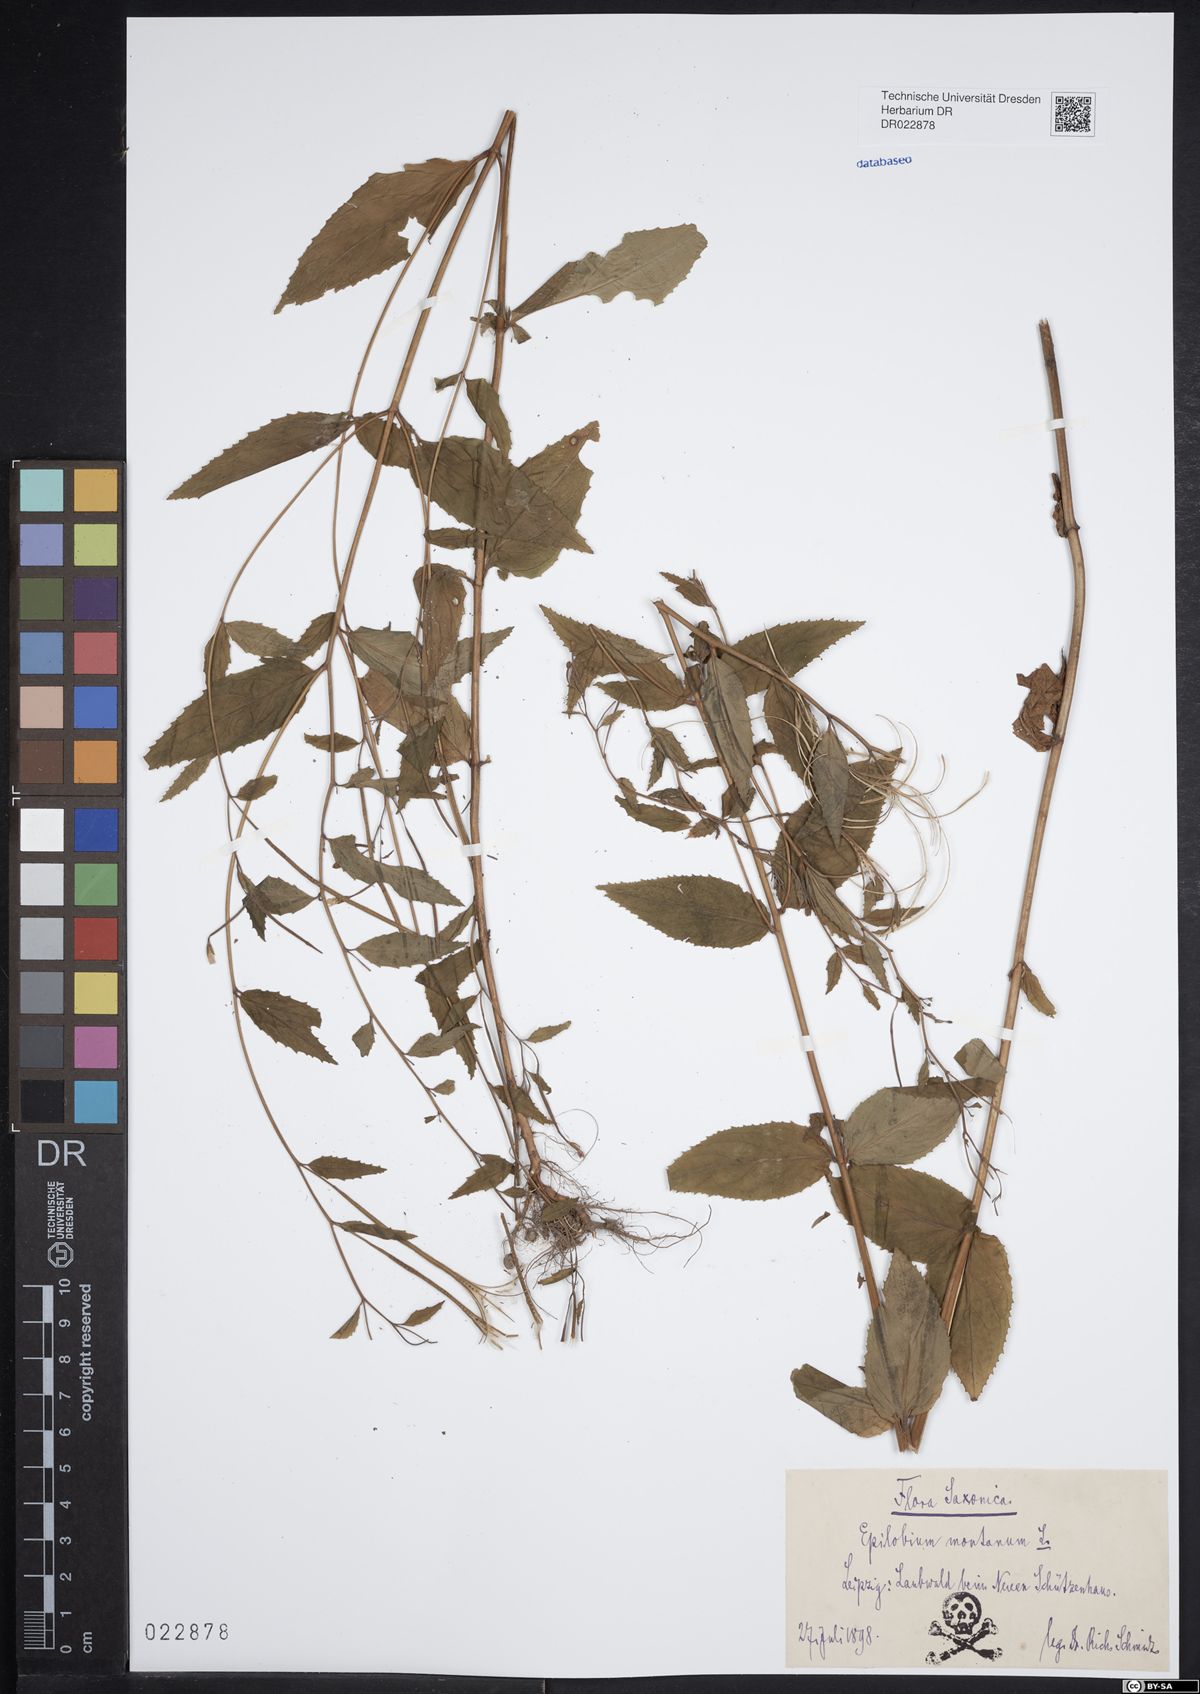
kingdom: Plantae
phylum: Tracheophyta
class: Magnoliopsida
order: Myrtales
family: Onagraceae
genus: Epilobium
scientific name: Epilobium montanum
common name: Broad-leaved willowherb
